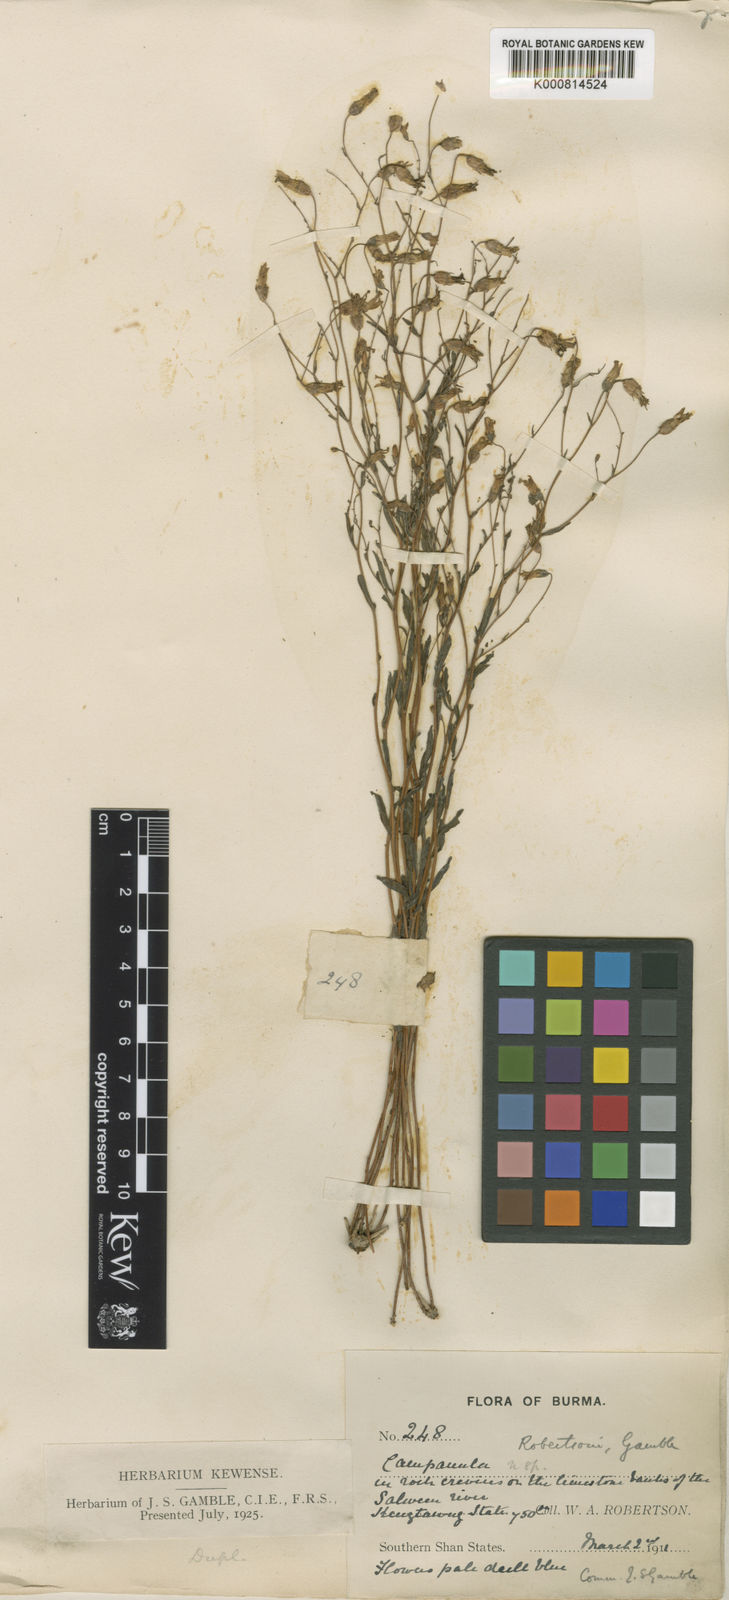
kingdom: Plantae
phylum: Tracheophyta
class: Magnoliopsida
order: Asterales
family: Campanulaceae
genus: Campanula
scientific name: Campanula robertsonii
